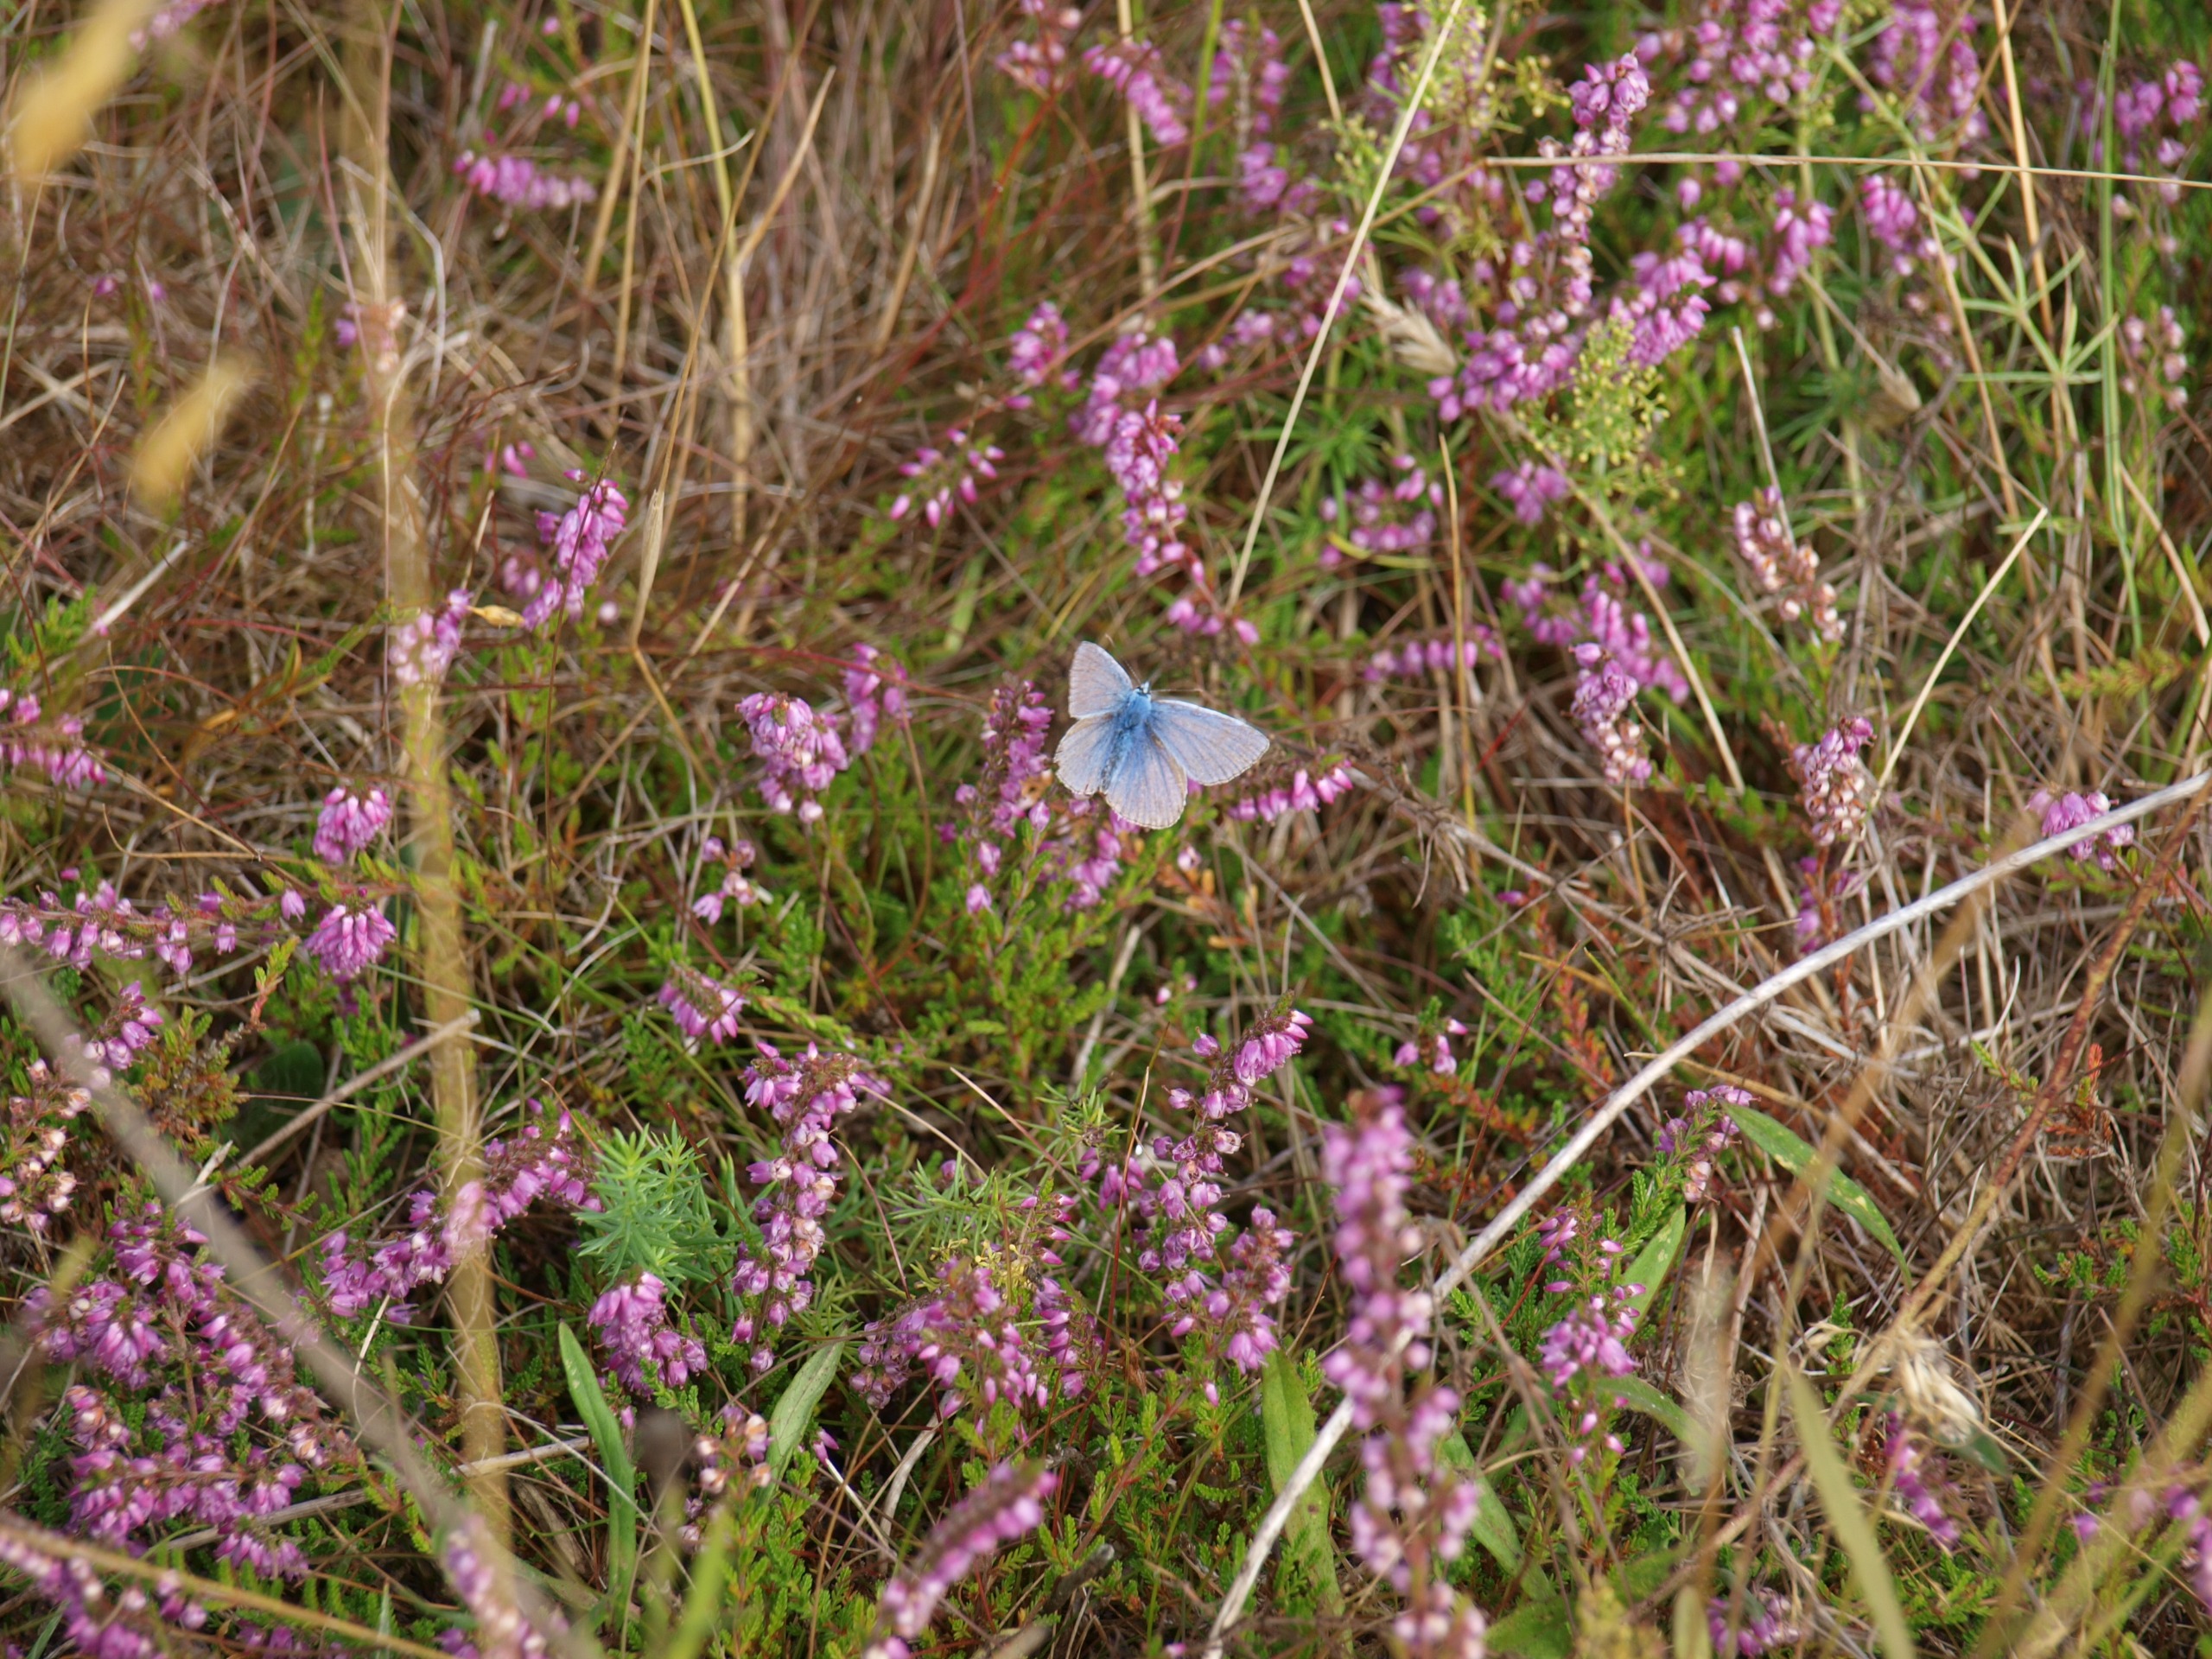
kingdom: Animalia
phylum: Arthropoda
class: Insecta
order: Lepidoptera
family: Lycaenidae
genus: Polyommatus
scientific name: Polyommatus icarus
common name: Almindelig blåfugl
